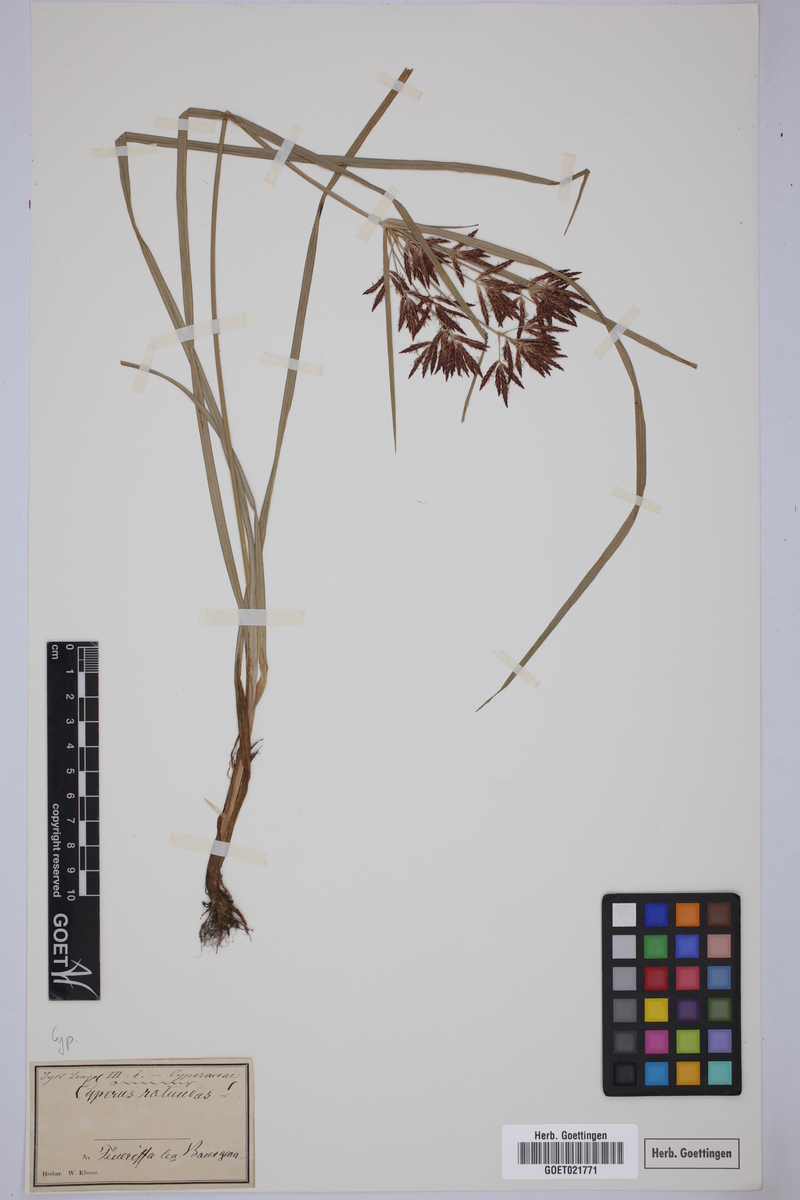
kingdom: Plantae
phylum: Tracheophyta
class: Liliopsida
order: Poales
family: Cyperaceae
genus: Cyperus
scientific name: Cyperus rotundus
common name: Nutgrass
